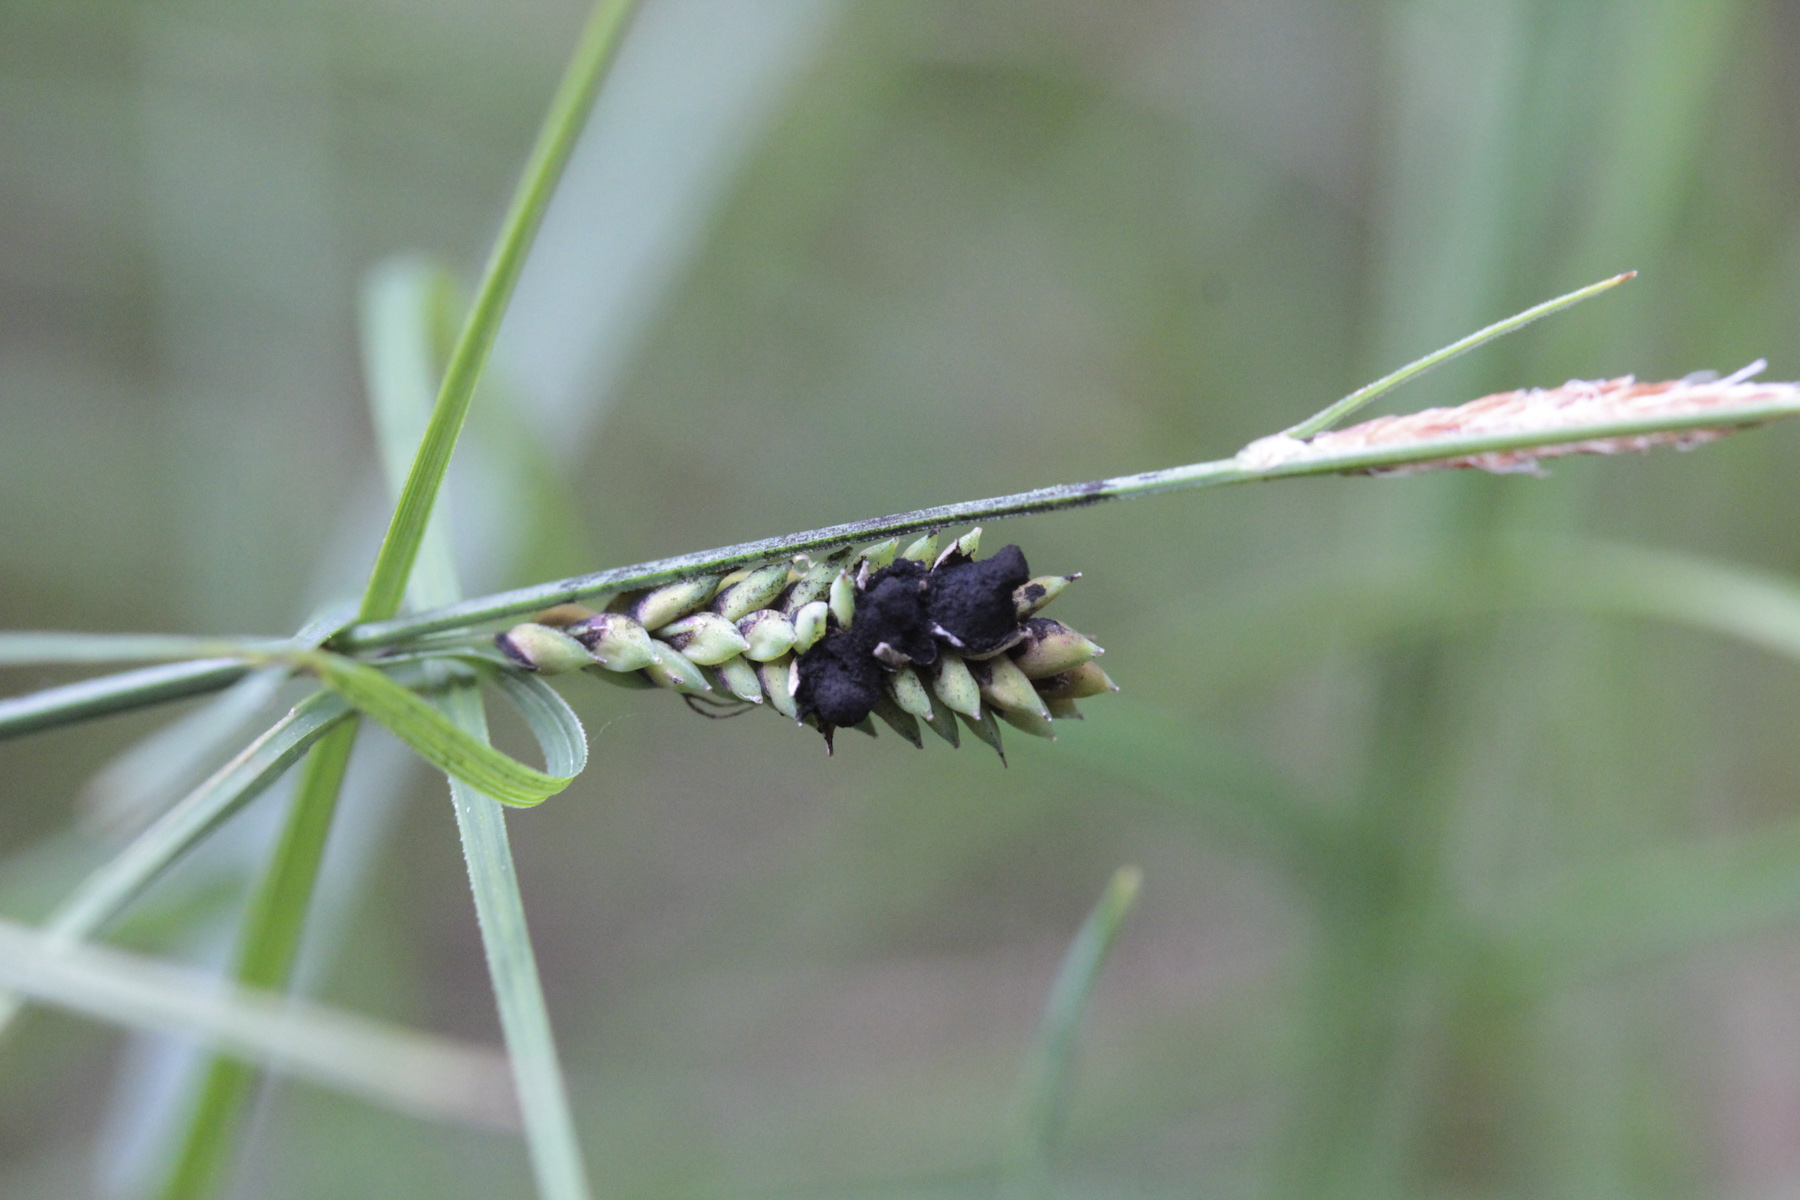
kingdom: Fungi
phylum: Basidiomycota
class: Ustilaginomycetes
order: Ustilaginales
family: Anthracoideaceae
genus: Anthracoidea
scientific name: Anthracoidea lasiocarpae
